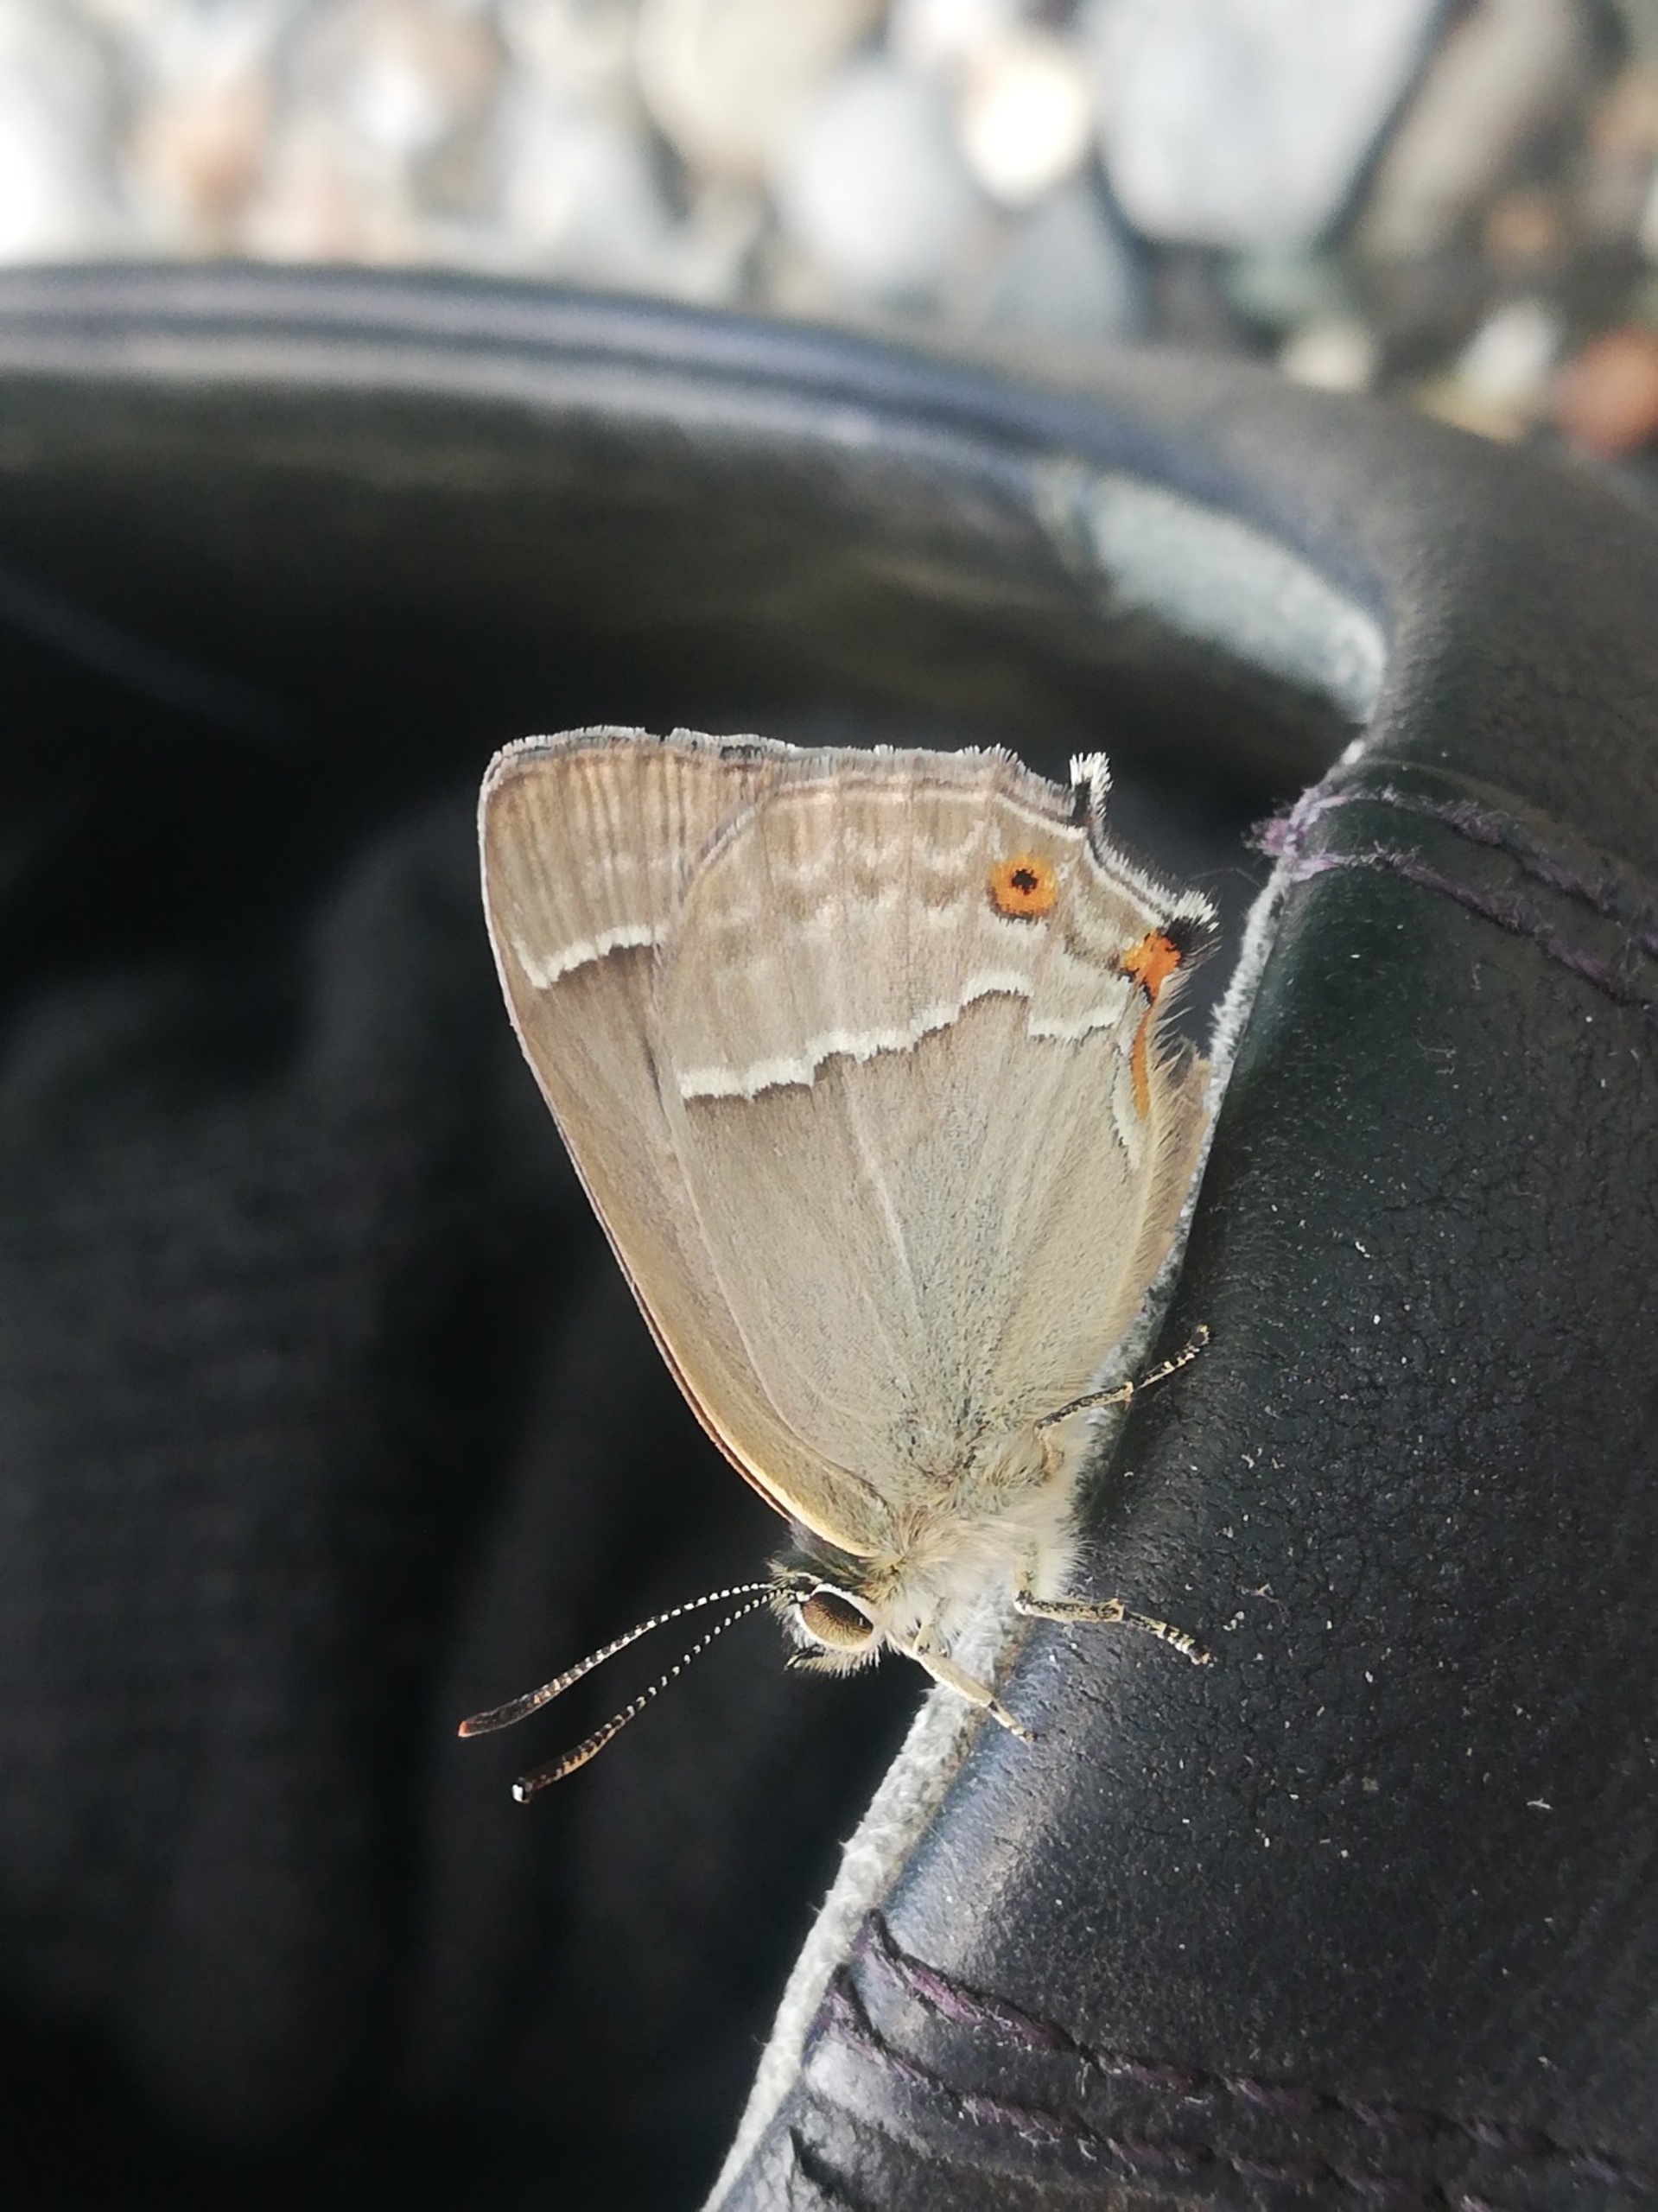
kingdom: Animalia
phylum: Arthropoda
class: Insecta
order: Lepidoptera
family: Lycaenidae
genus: Quercusia
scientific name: Quercusia quercus
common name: Blåhale
